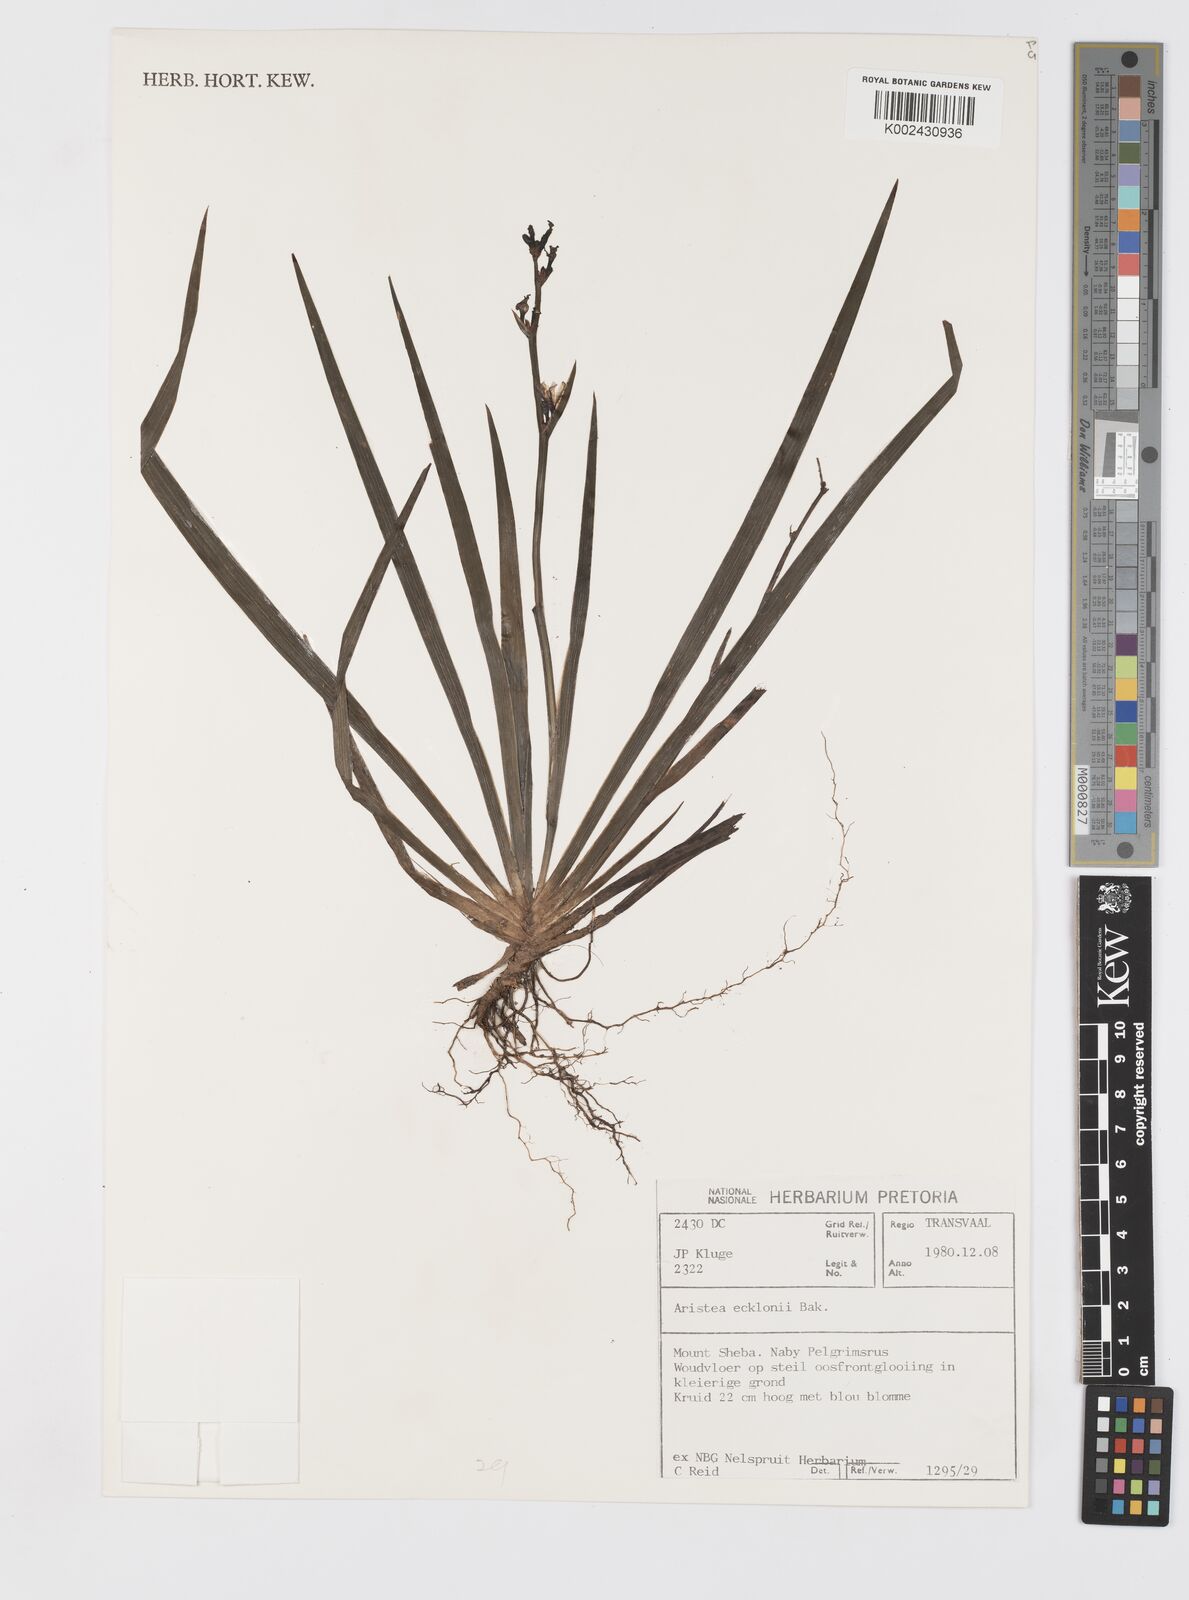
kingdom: Plantae
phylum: Tracheophyta
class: Liliopsida
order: Asparagales
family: Iridaceae
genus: Aristea
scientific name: Aristea ecklonii
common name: Blue corn-lily
